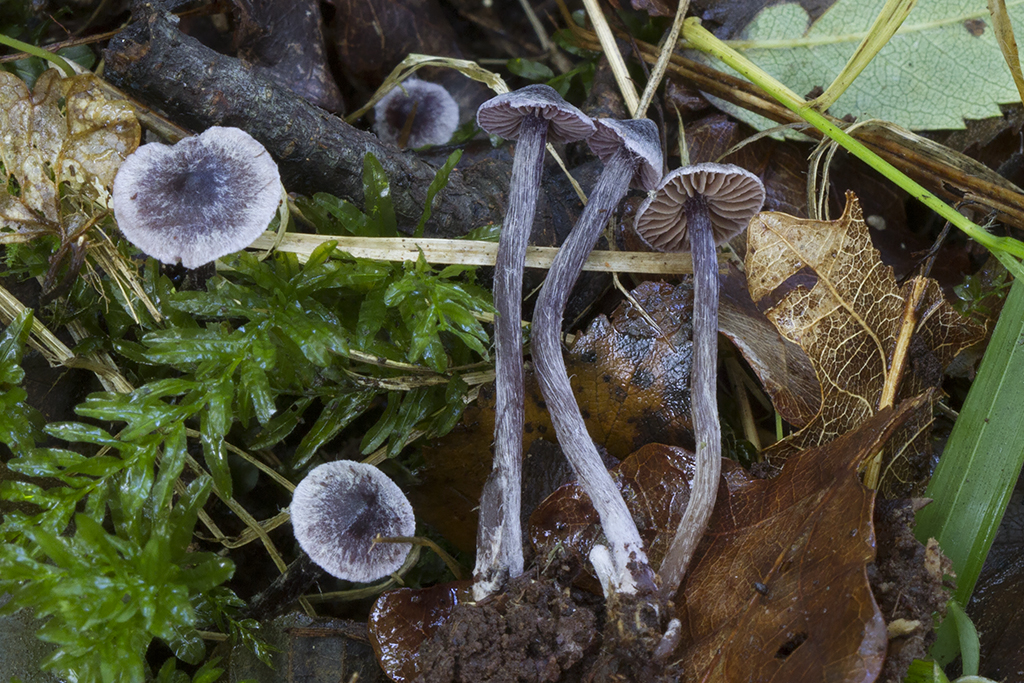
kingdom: Fungi
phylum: Basidiomycota
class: Agaricomycetes
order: Agaricales
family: Cortinariaceae
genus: Cortinarius
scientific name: Cortinarius americanus
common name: natsort slørhat
